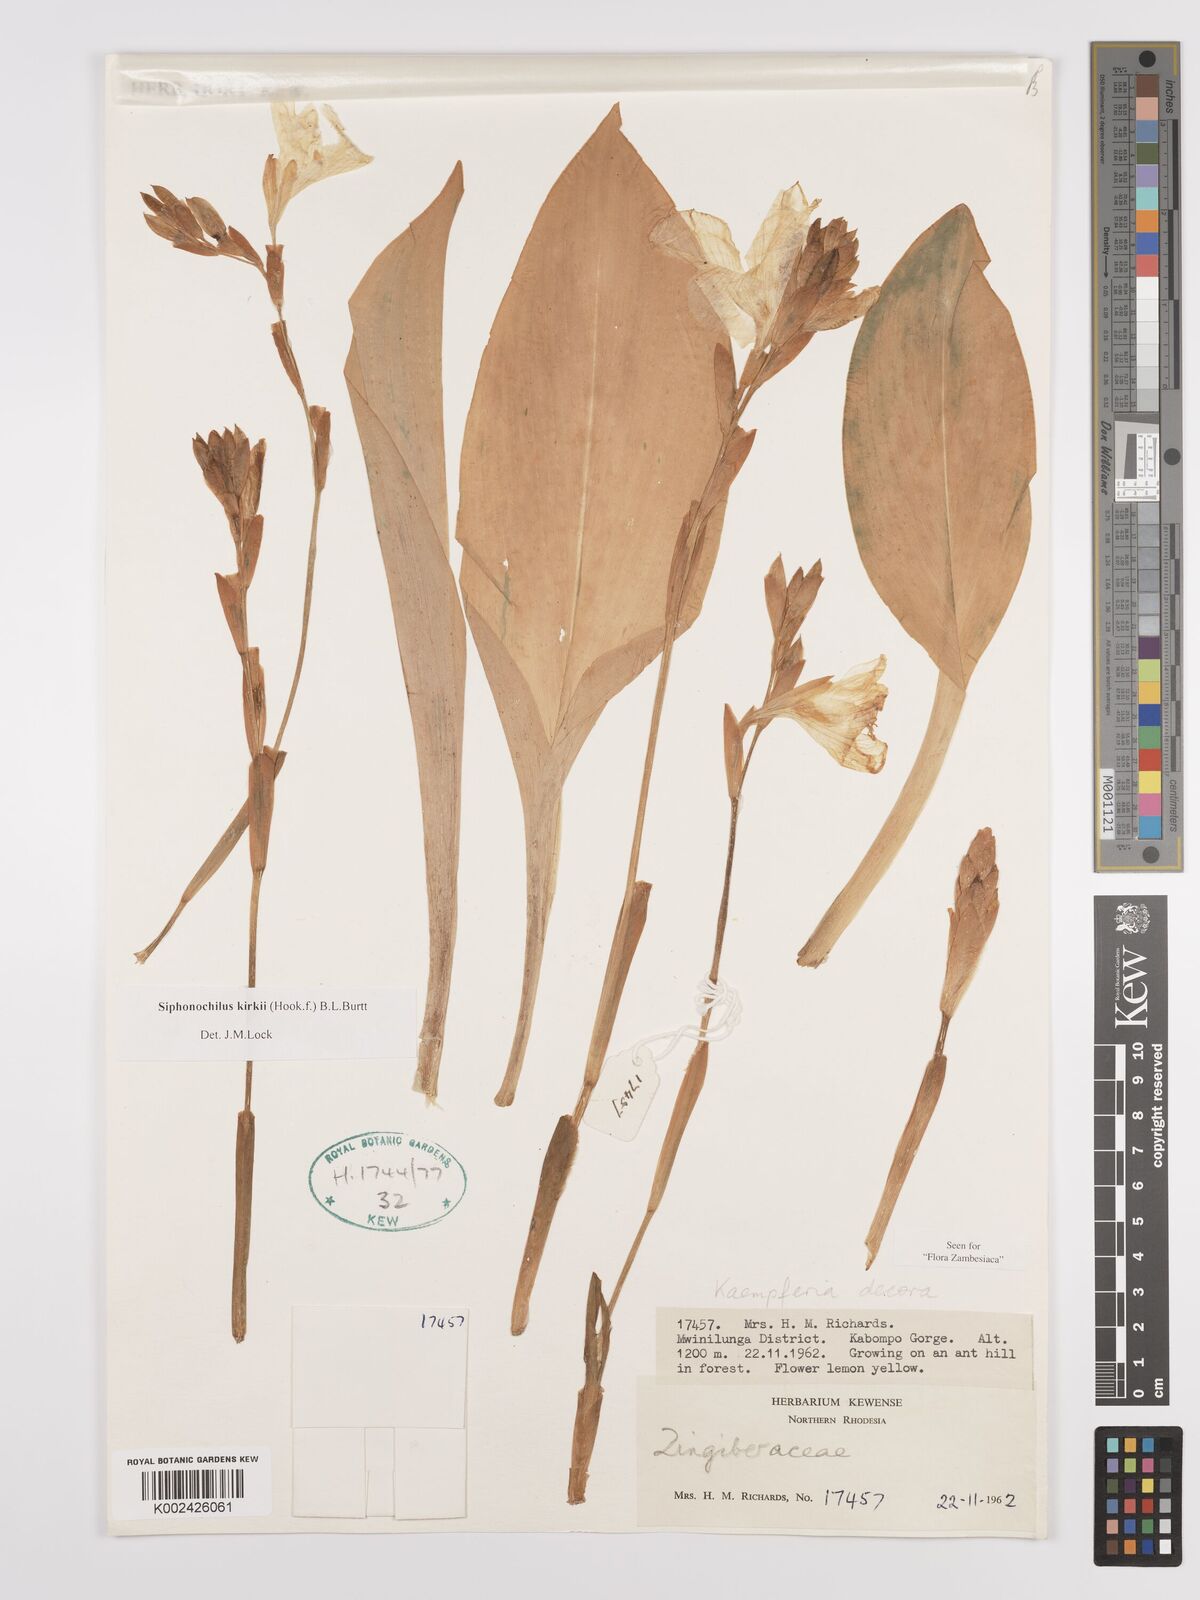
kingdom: Plantae
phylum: Tracheophyta
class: Liliopsida
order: Zingiberales
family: Zingiberaceae
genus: Siphonochilus
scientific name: Siphonochilus kirkii
